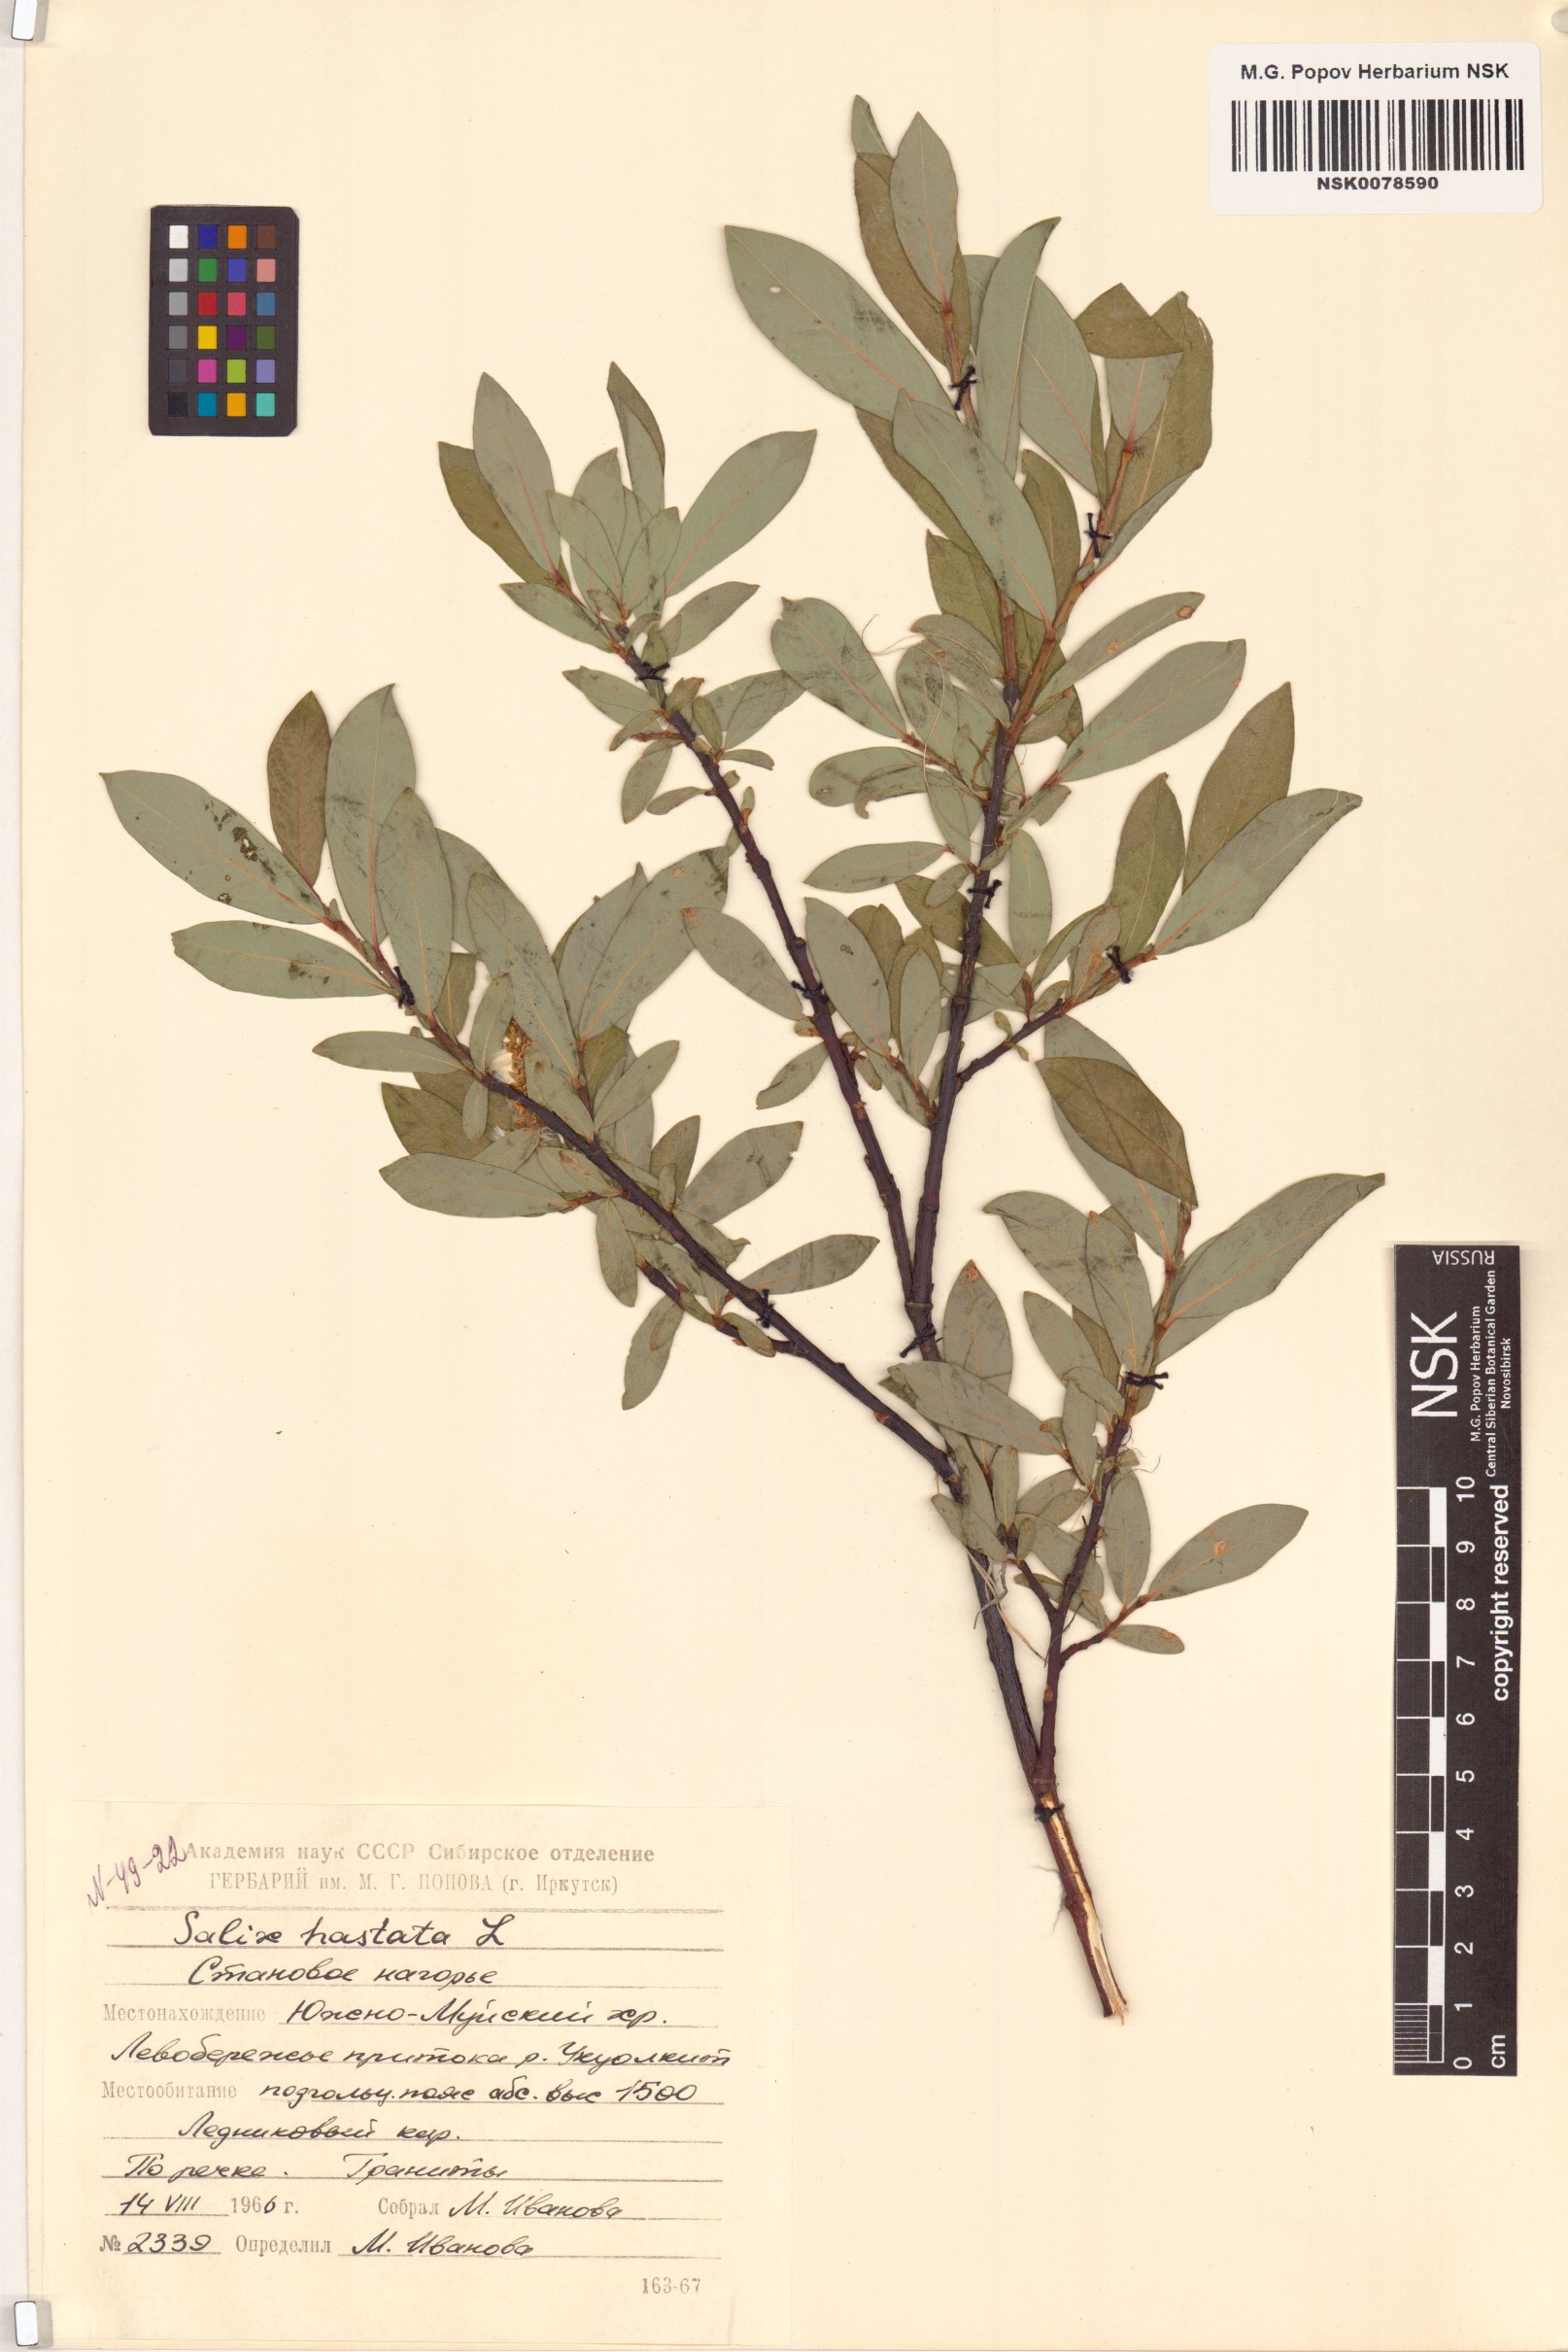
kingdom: Plantae
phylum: Tracheophyta
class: Magnoliopsida
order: Malpighiales
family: Salicaceae
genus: Salix
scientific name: Salix hastata
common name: Halberd willow
